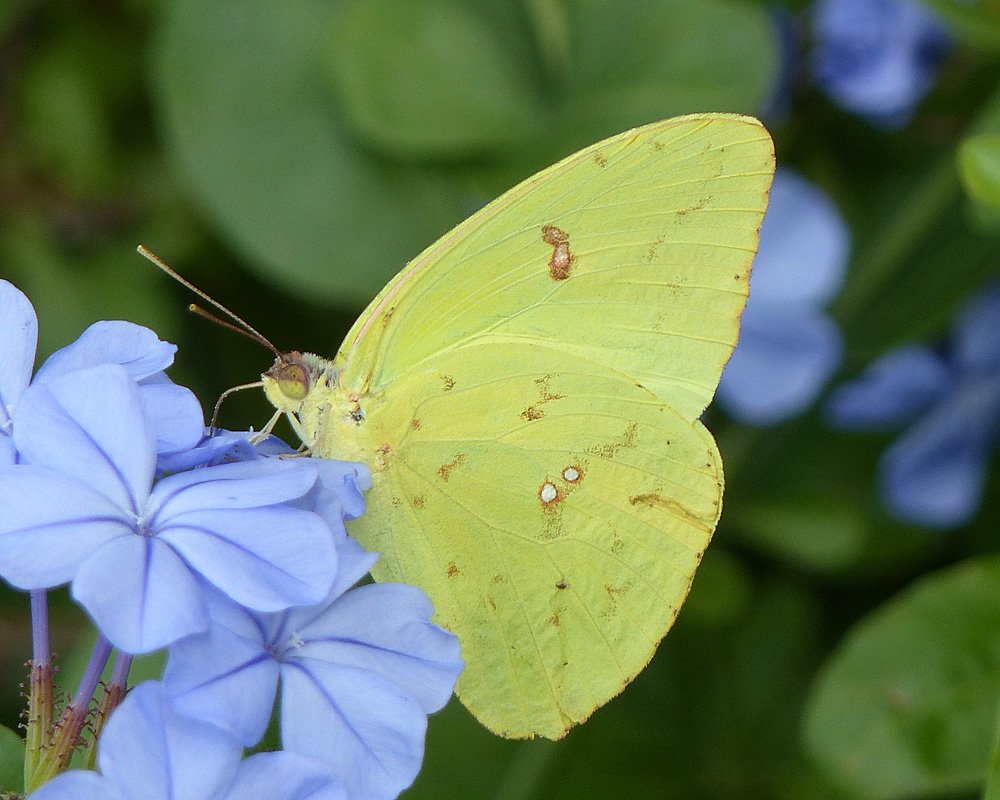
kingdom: Animalia
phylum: Arthropoda
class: Insecta
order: Lepidoptera
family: Pieridae
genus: Phoebis
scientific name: Phoebis sennae
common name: Cloudless Sulphur
